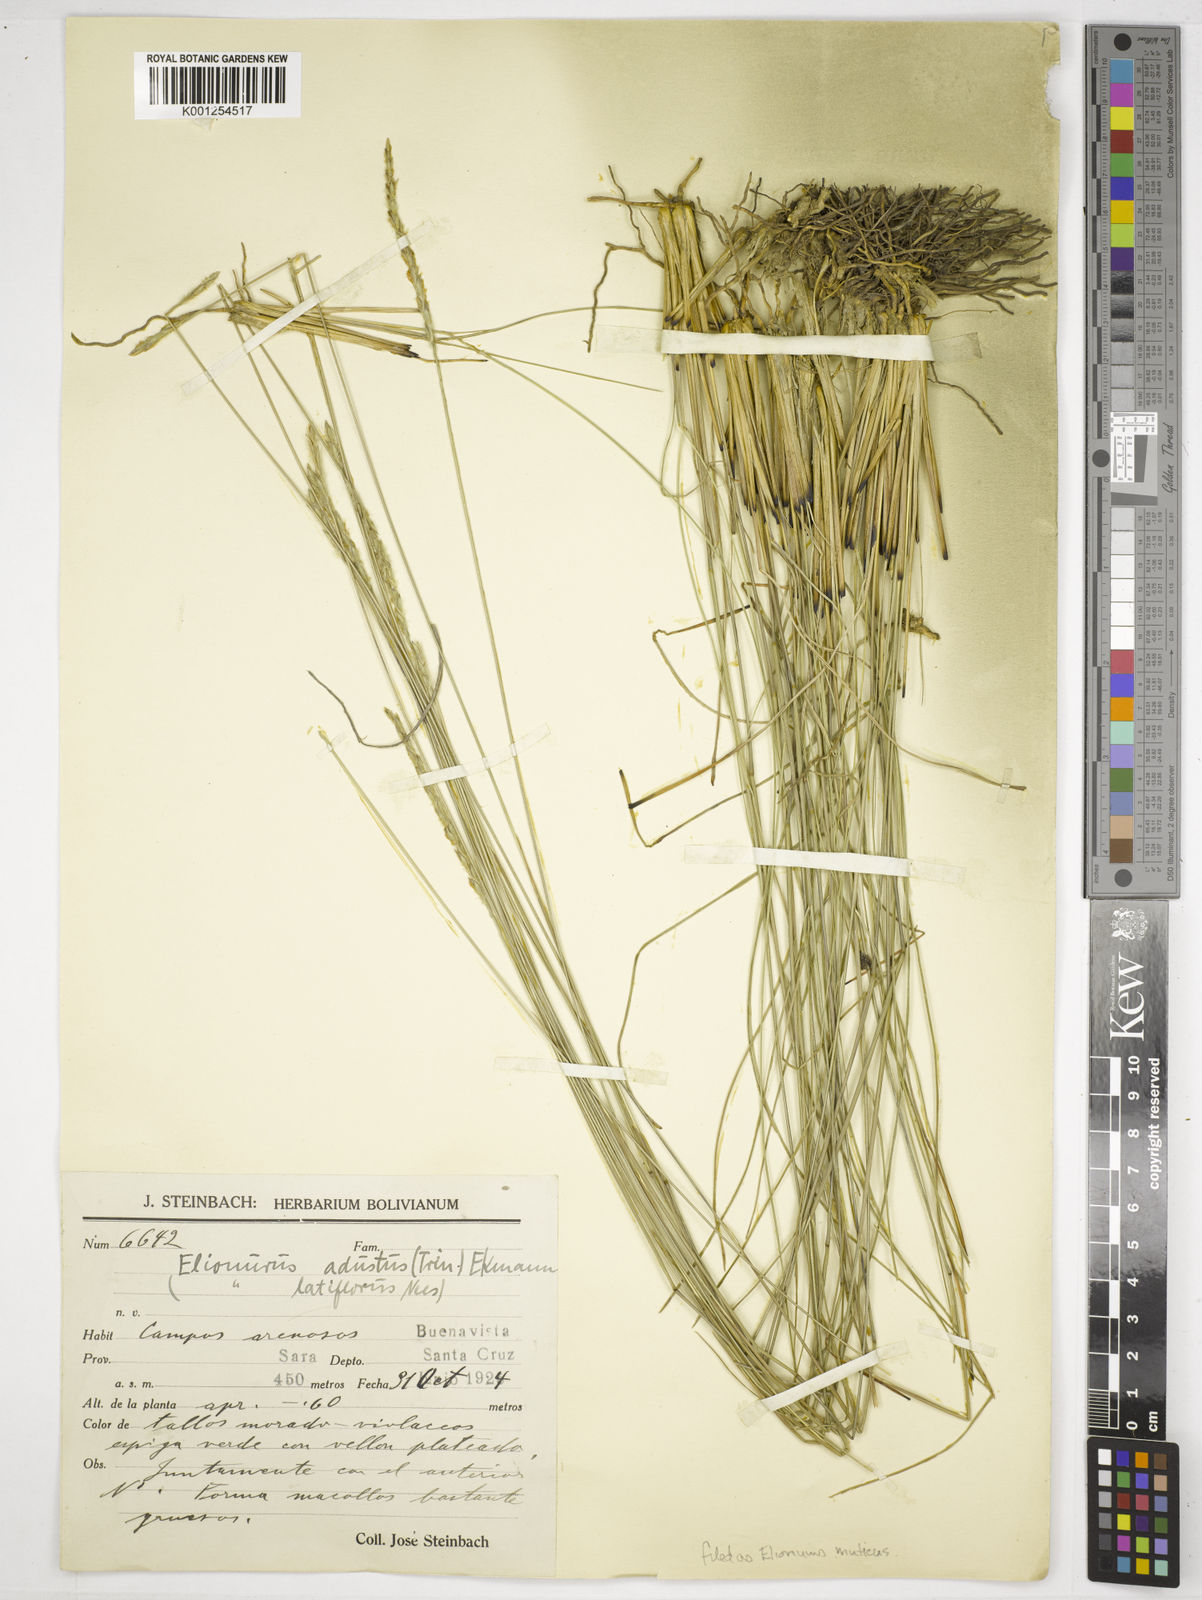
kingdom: Plantae
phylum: Tracheophyta
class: Liliopsida
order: Poales
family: Poaceae
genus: Elionurus
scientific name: Elionurus muticus
